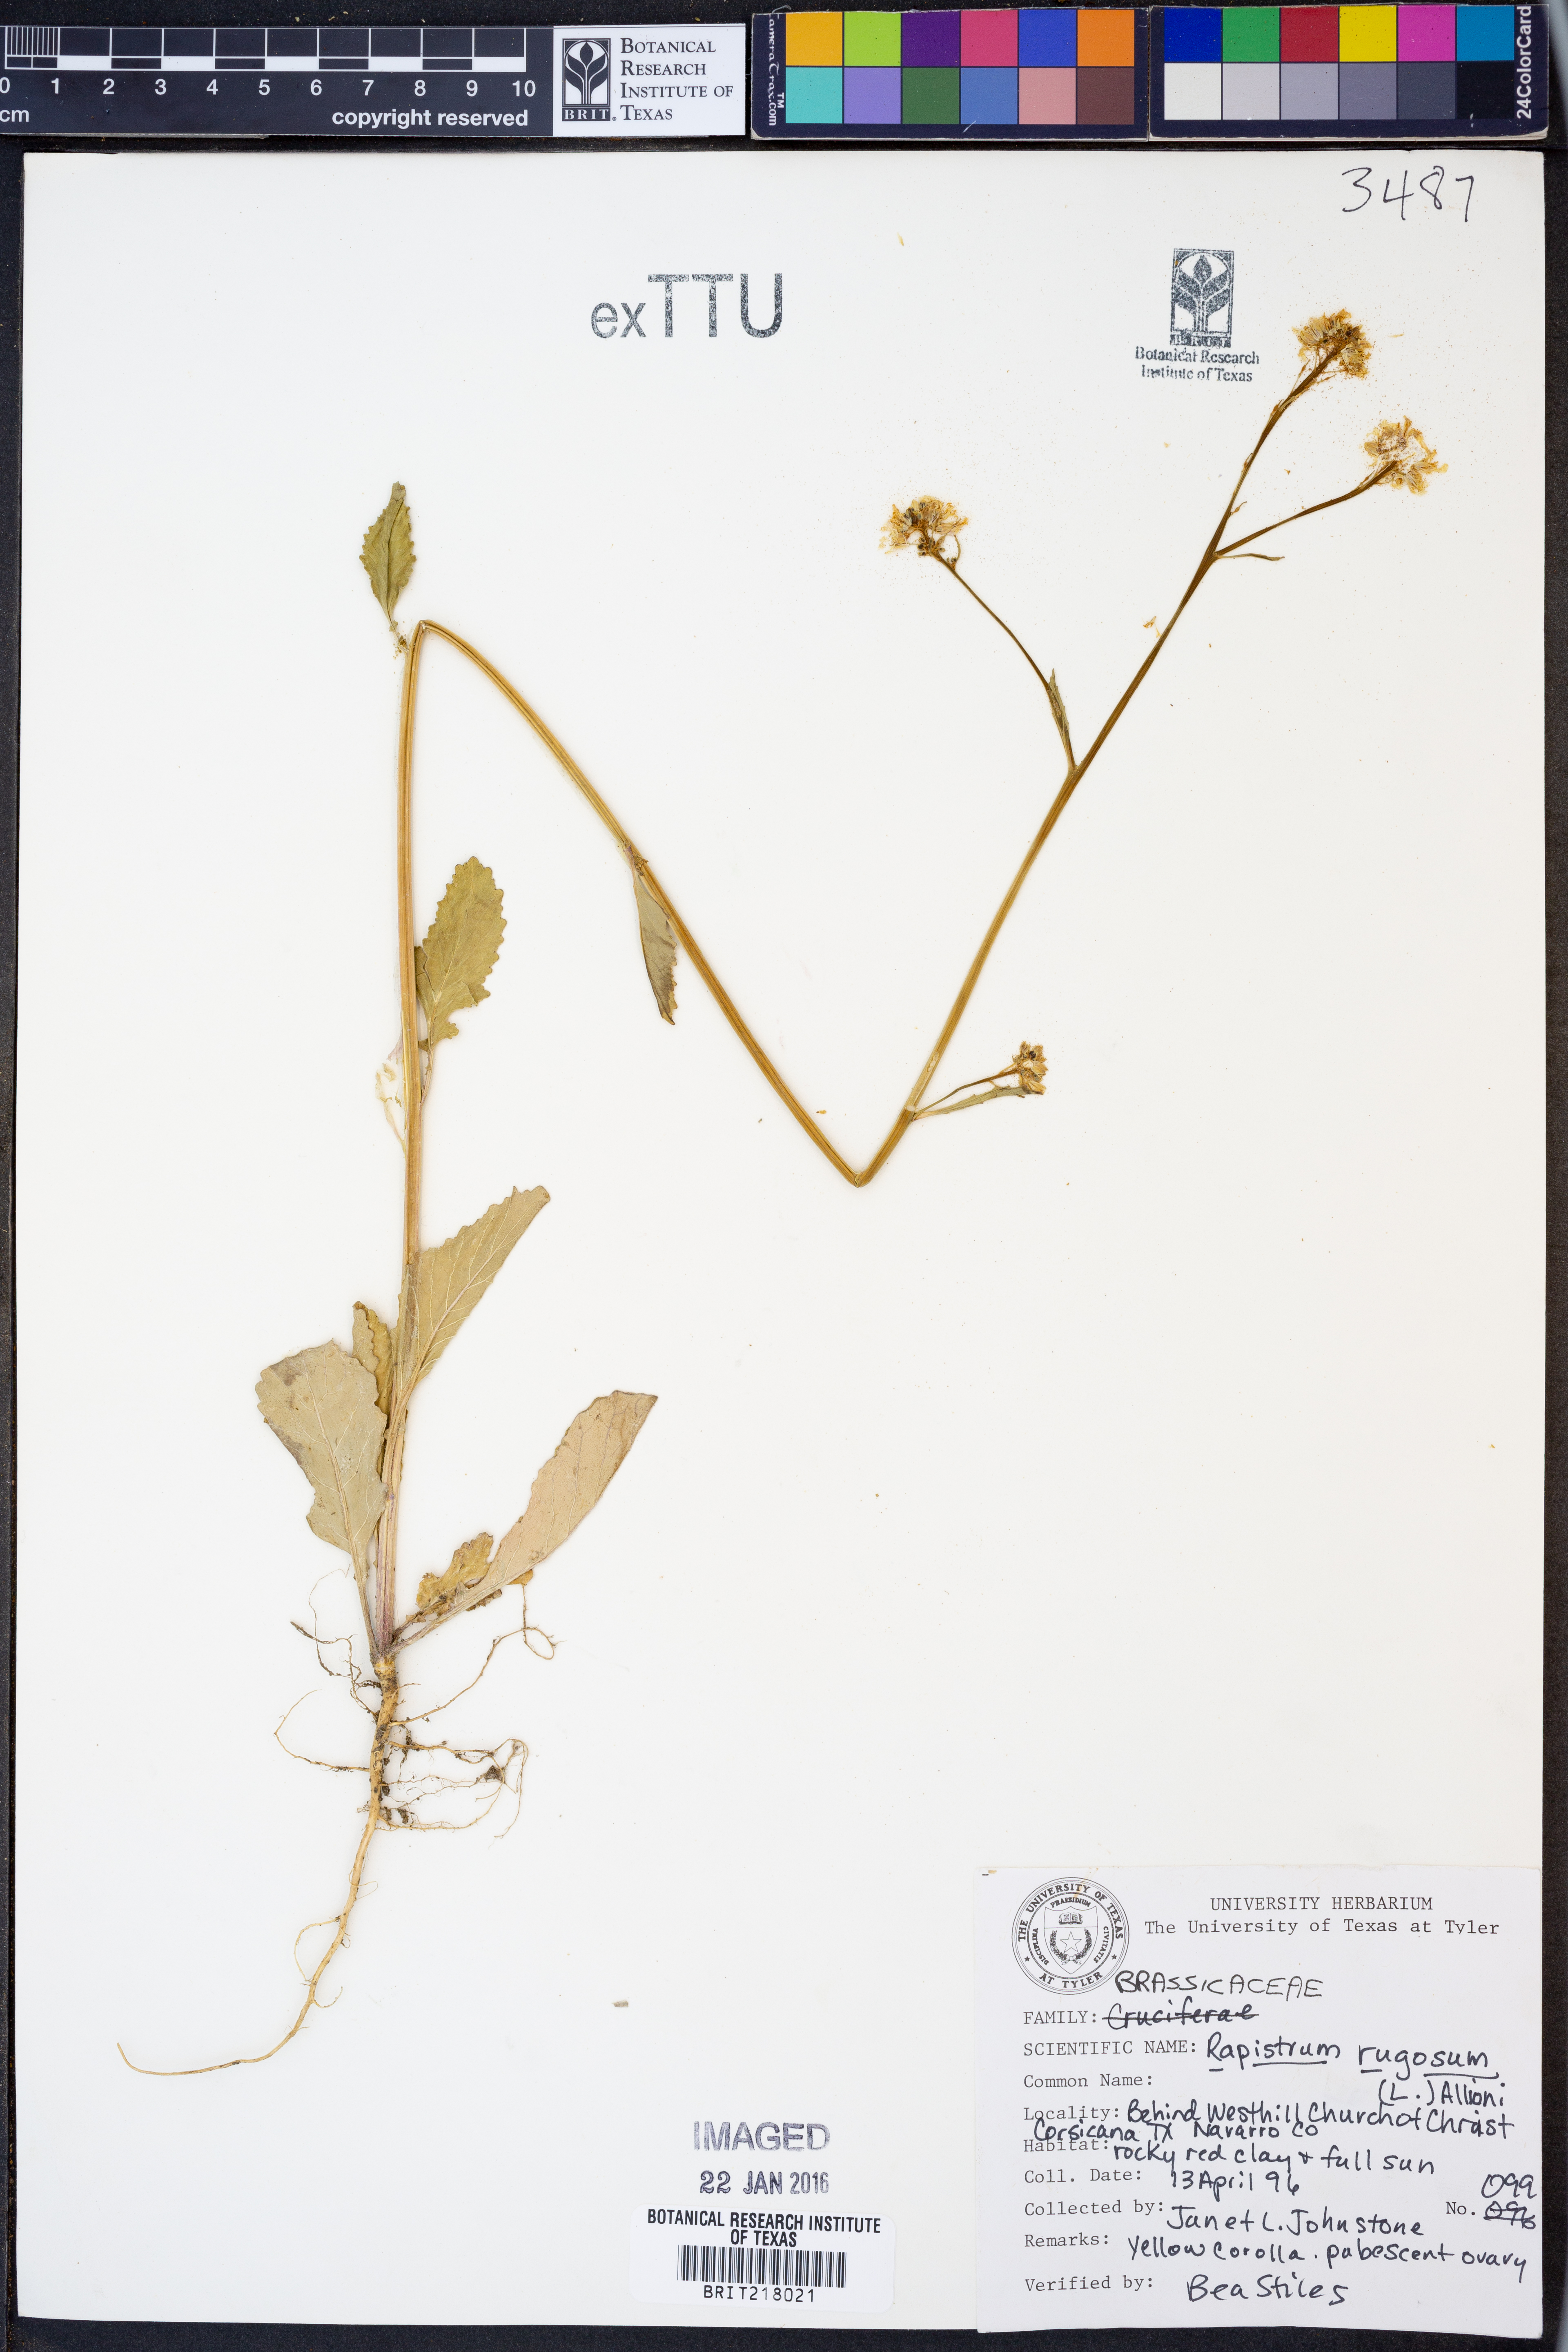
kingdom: Plantae
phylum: Tracheophyta
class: Magnoliopsida
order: Brassicales
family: Brassicaceae
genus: Rapistrum
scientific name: Rapistrum rugosum
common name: Annual bastardcabbage
